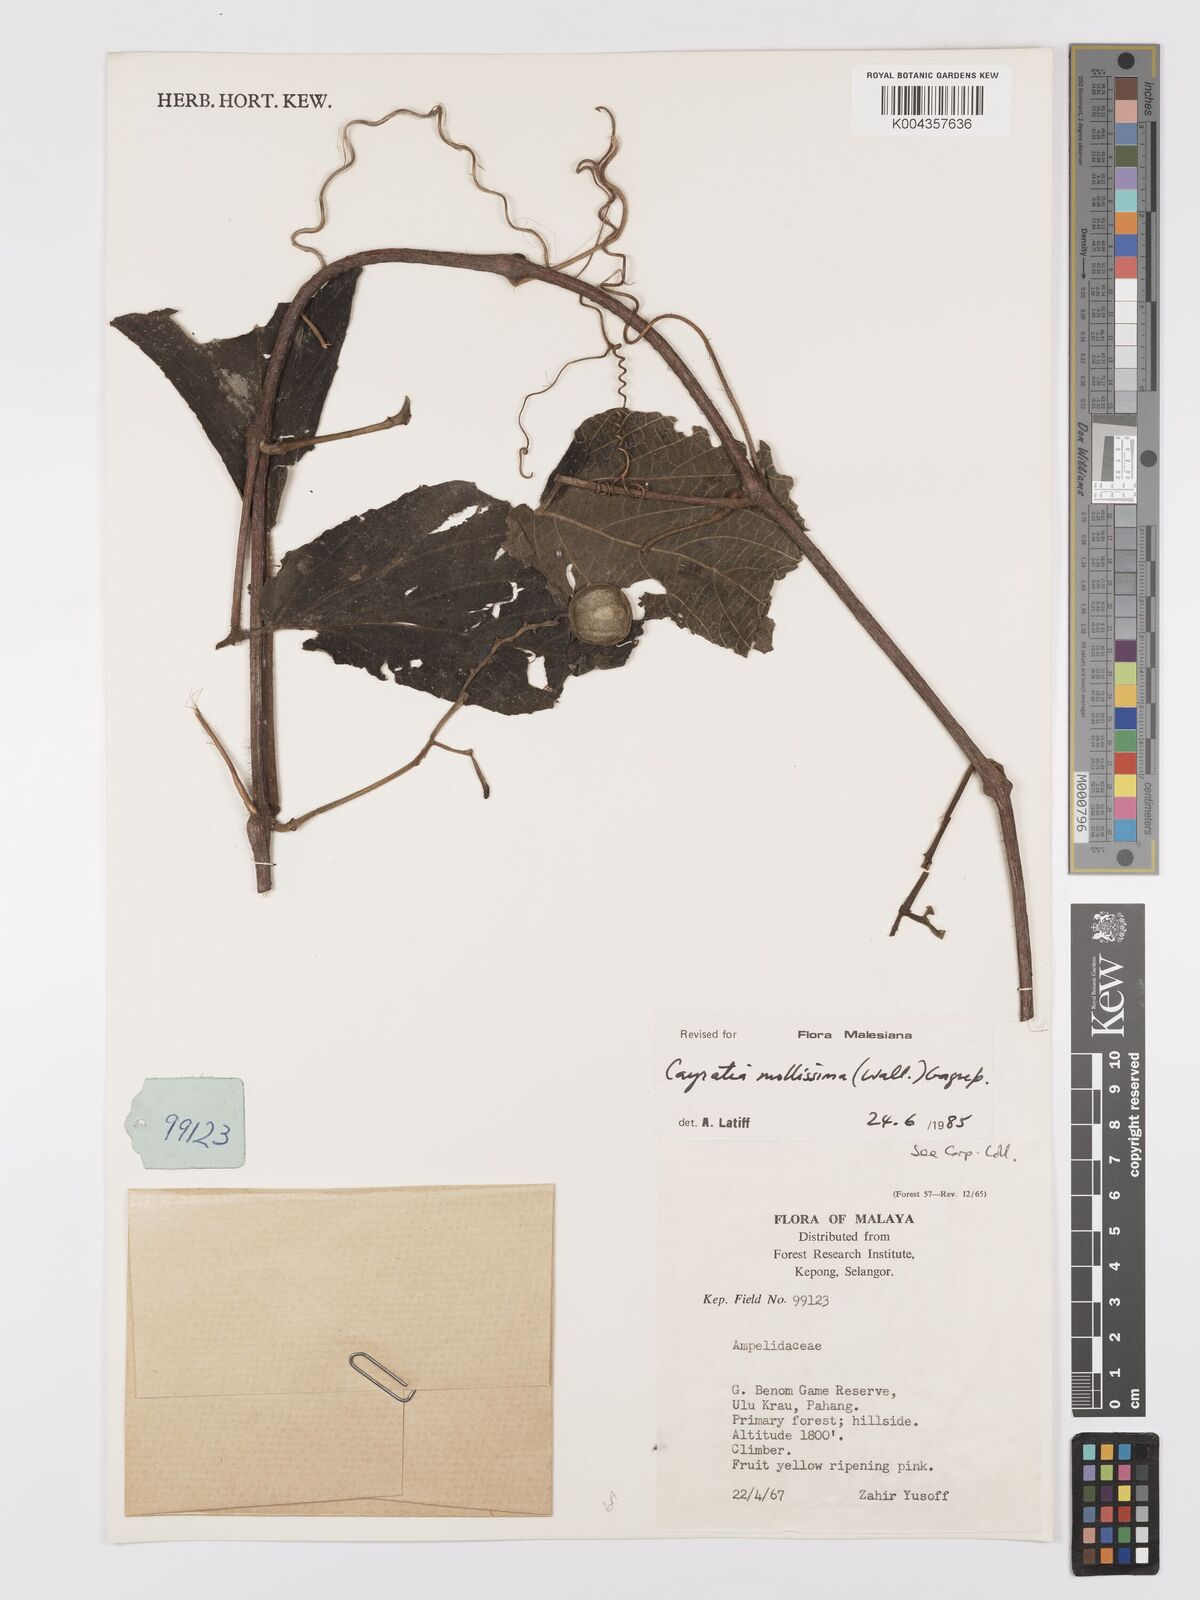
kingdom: Plantae
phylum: Tracheophyta
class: Magnoliopsida
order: Vitales
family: Vitaceae
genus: Cayratia
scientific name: Cayratia mollissima
